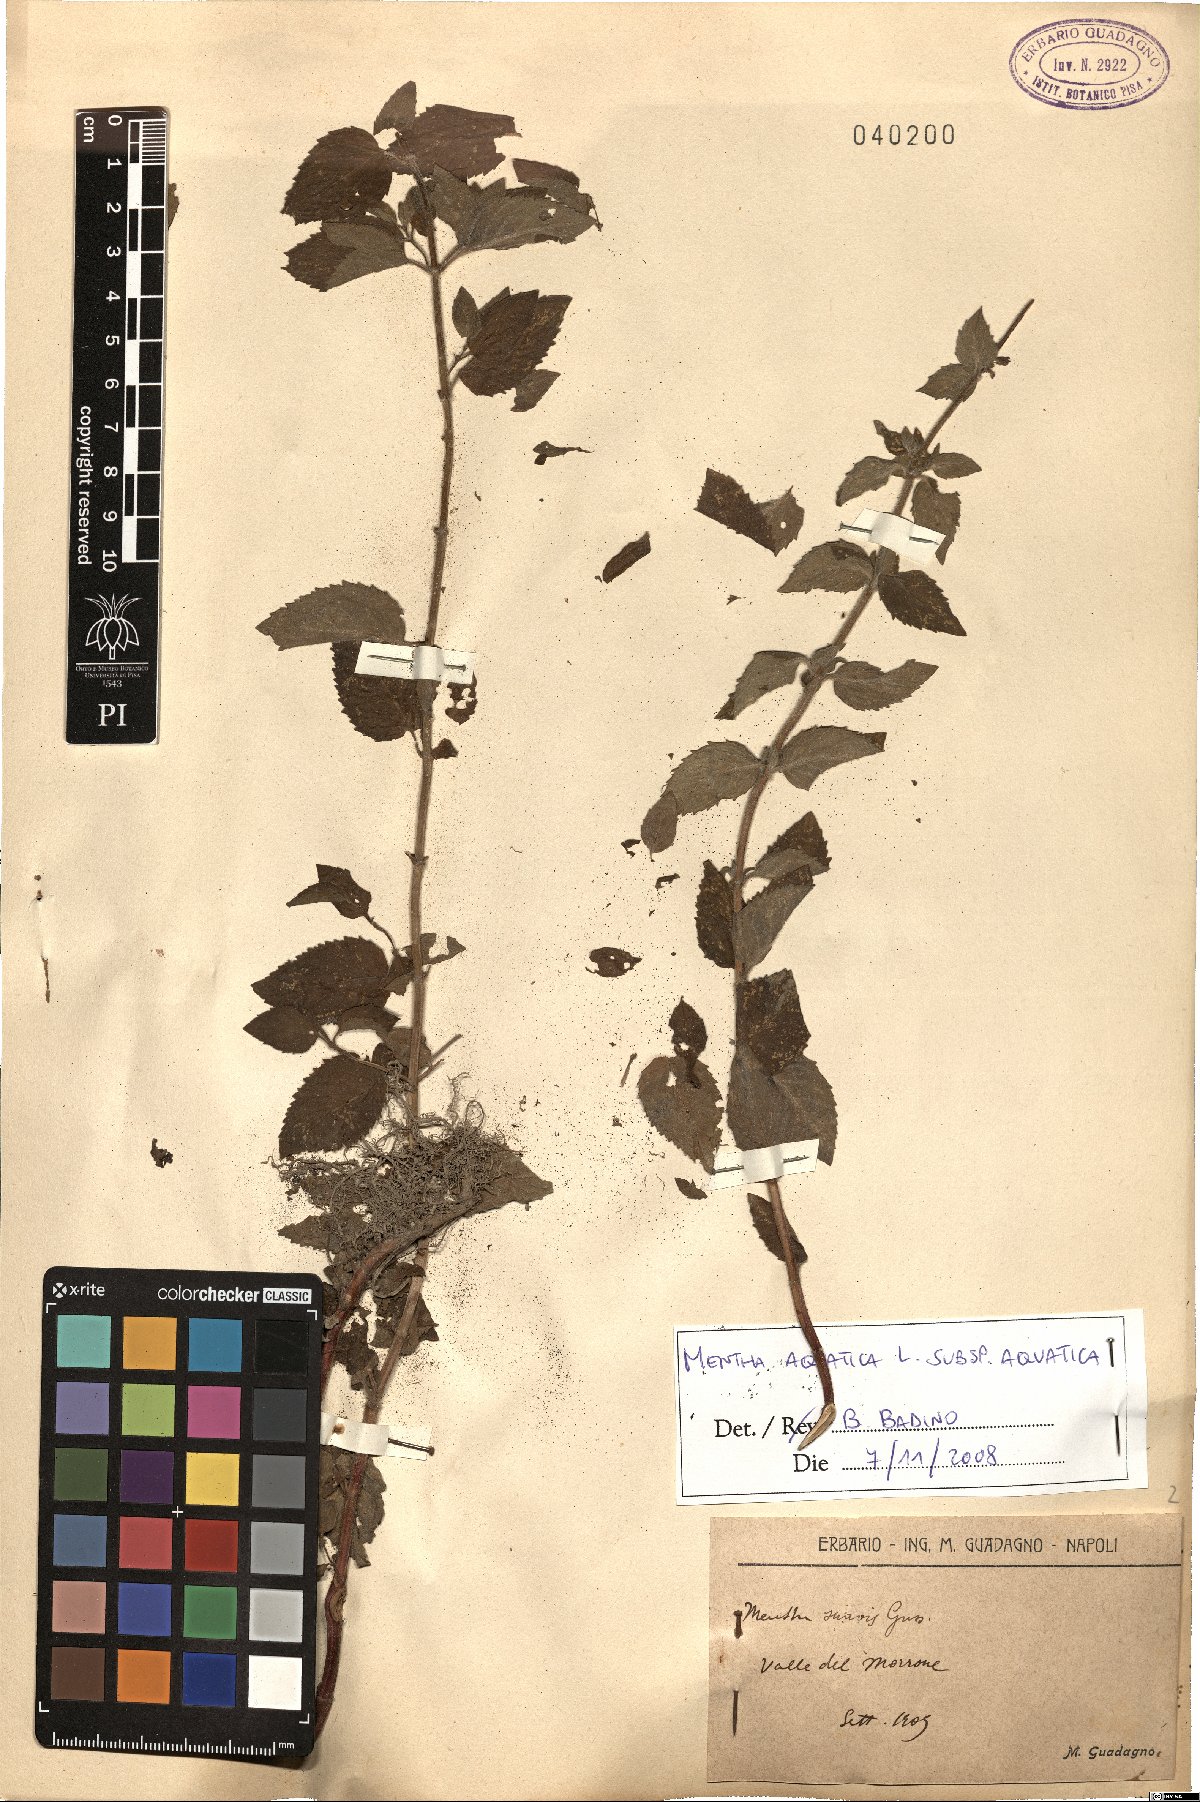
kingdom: Plantae
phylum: Tracheophyta
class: Magnoliopsida
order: Lamiales
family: Lamiaceae
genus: Mentha
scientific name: Mentha aquatica
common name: Water mint
